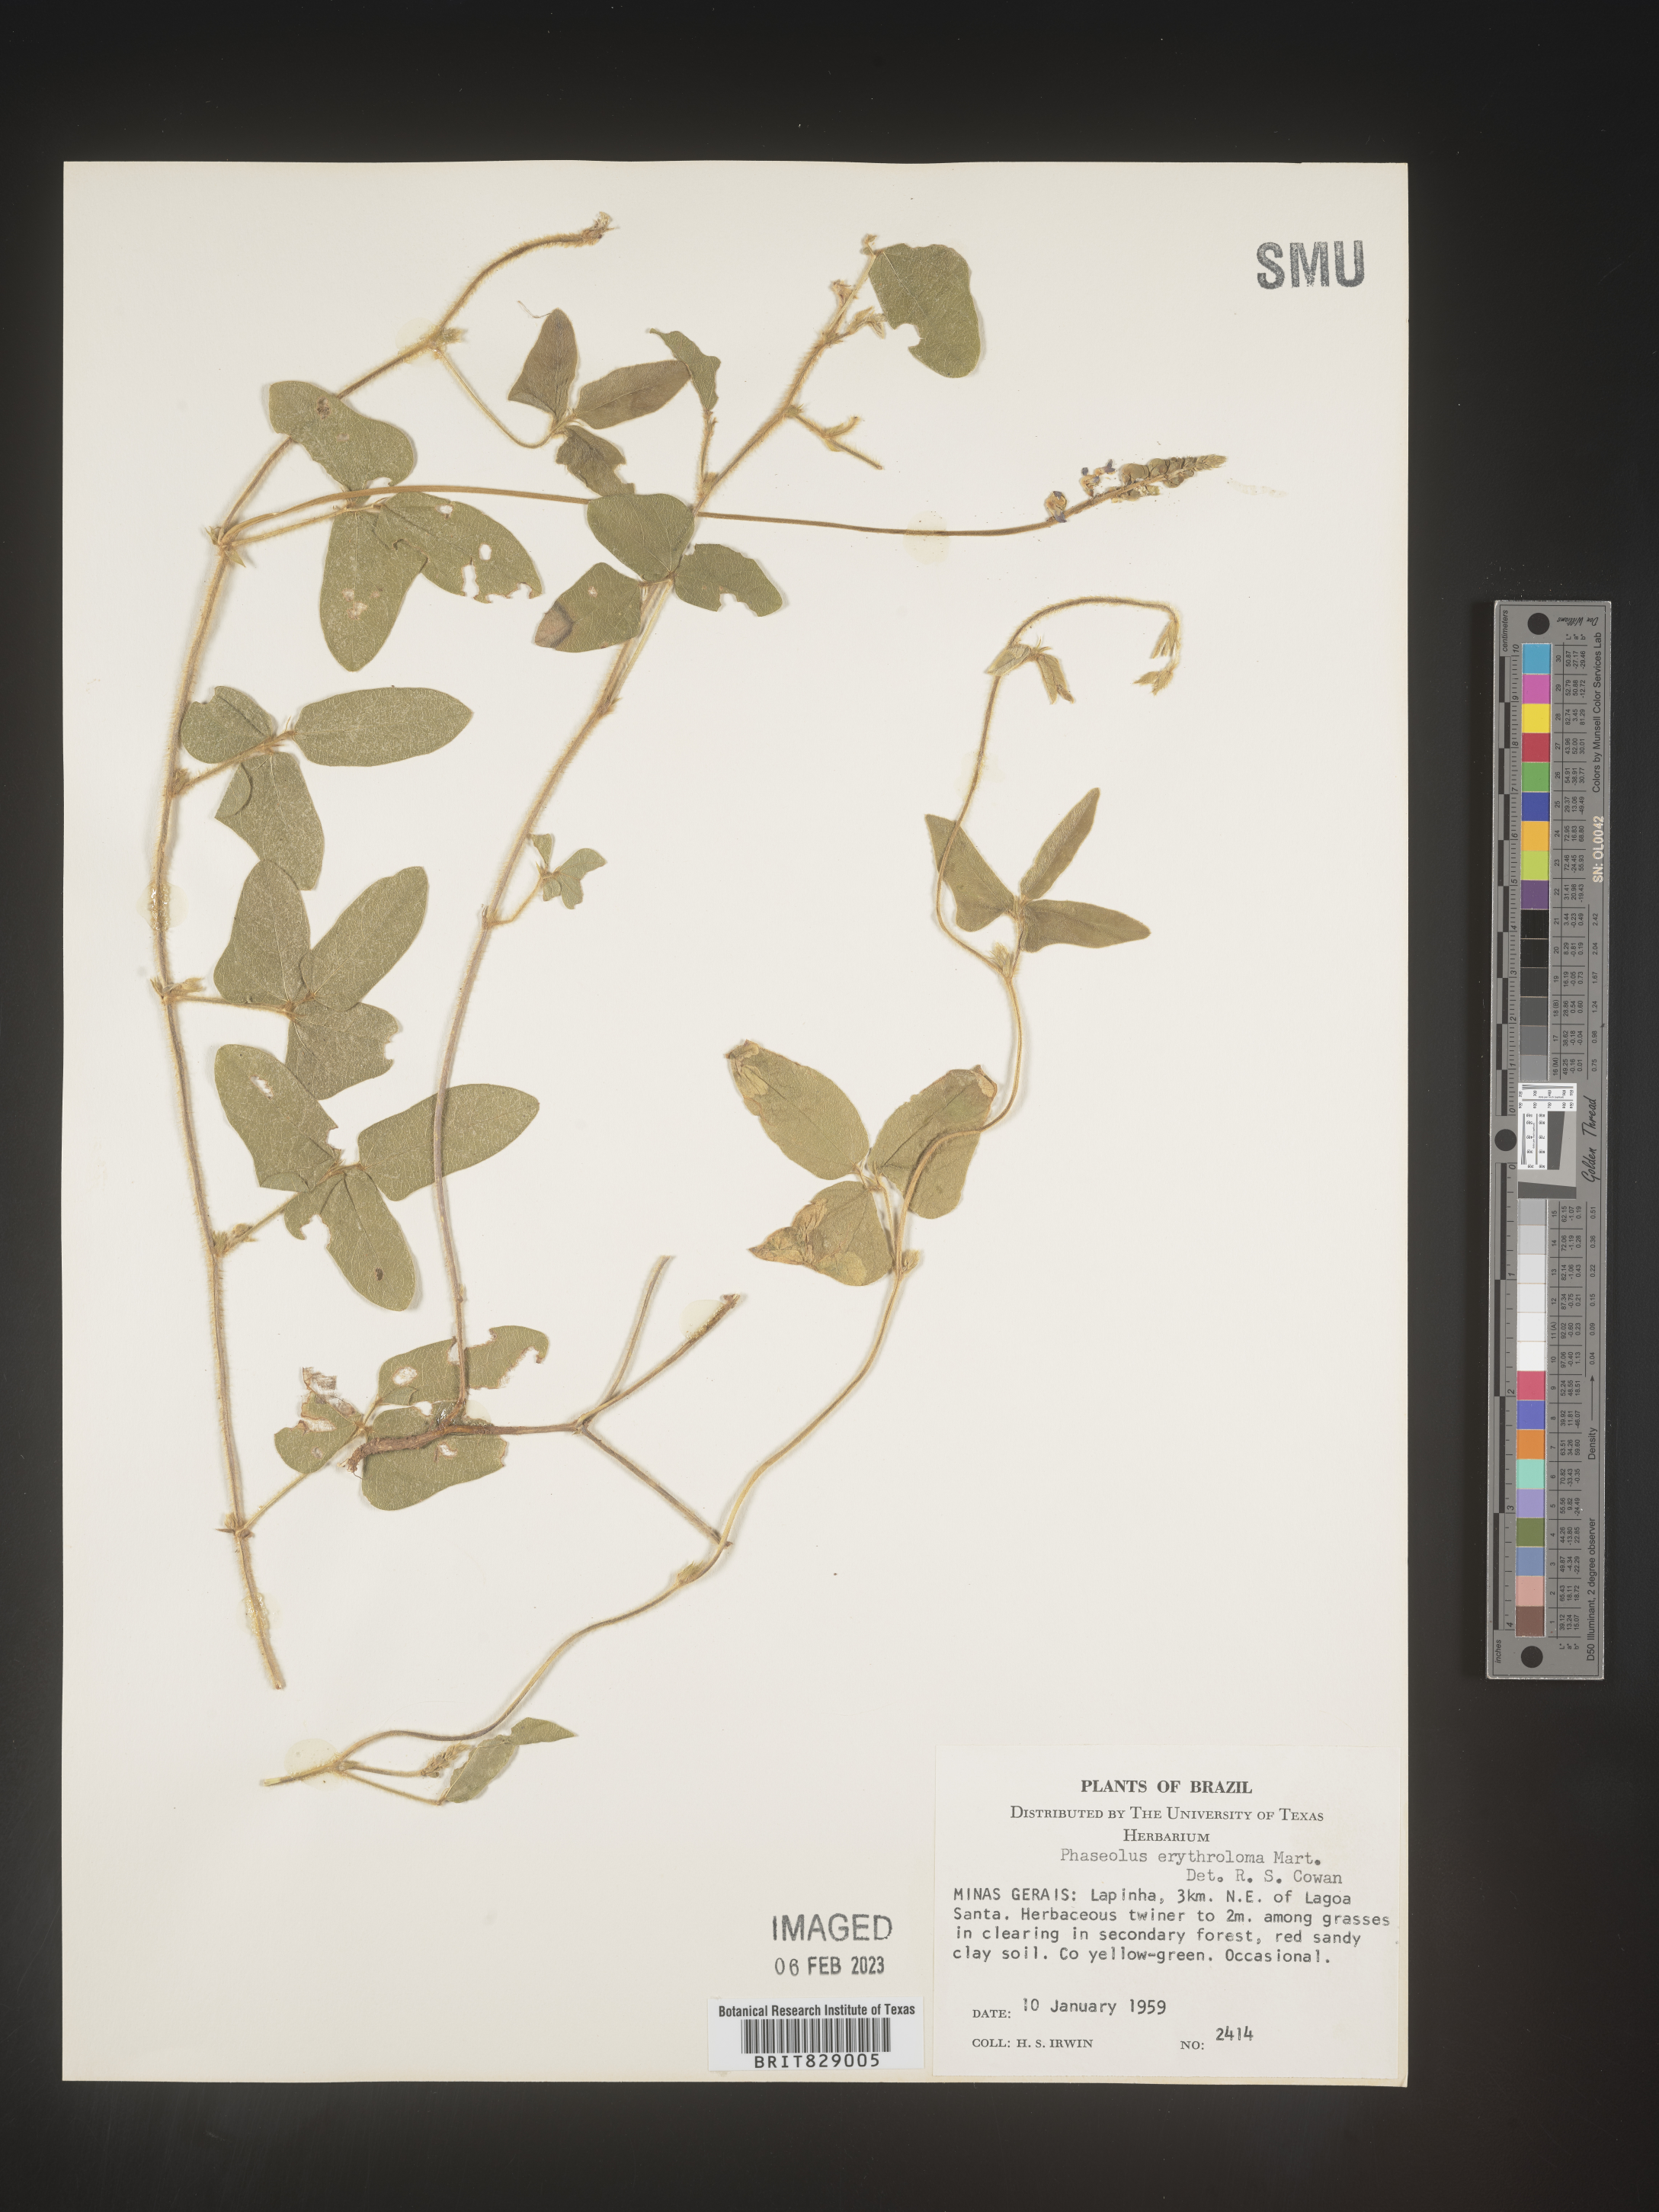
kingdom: Plantae
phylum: Tracheophyta
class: Magnoliopsida
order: Fabales
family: Fabaceae
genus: Phaseolus
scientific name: Phaseolus
